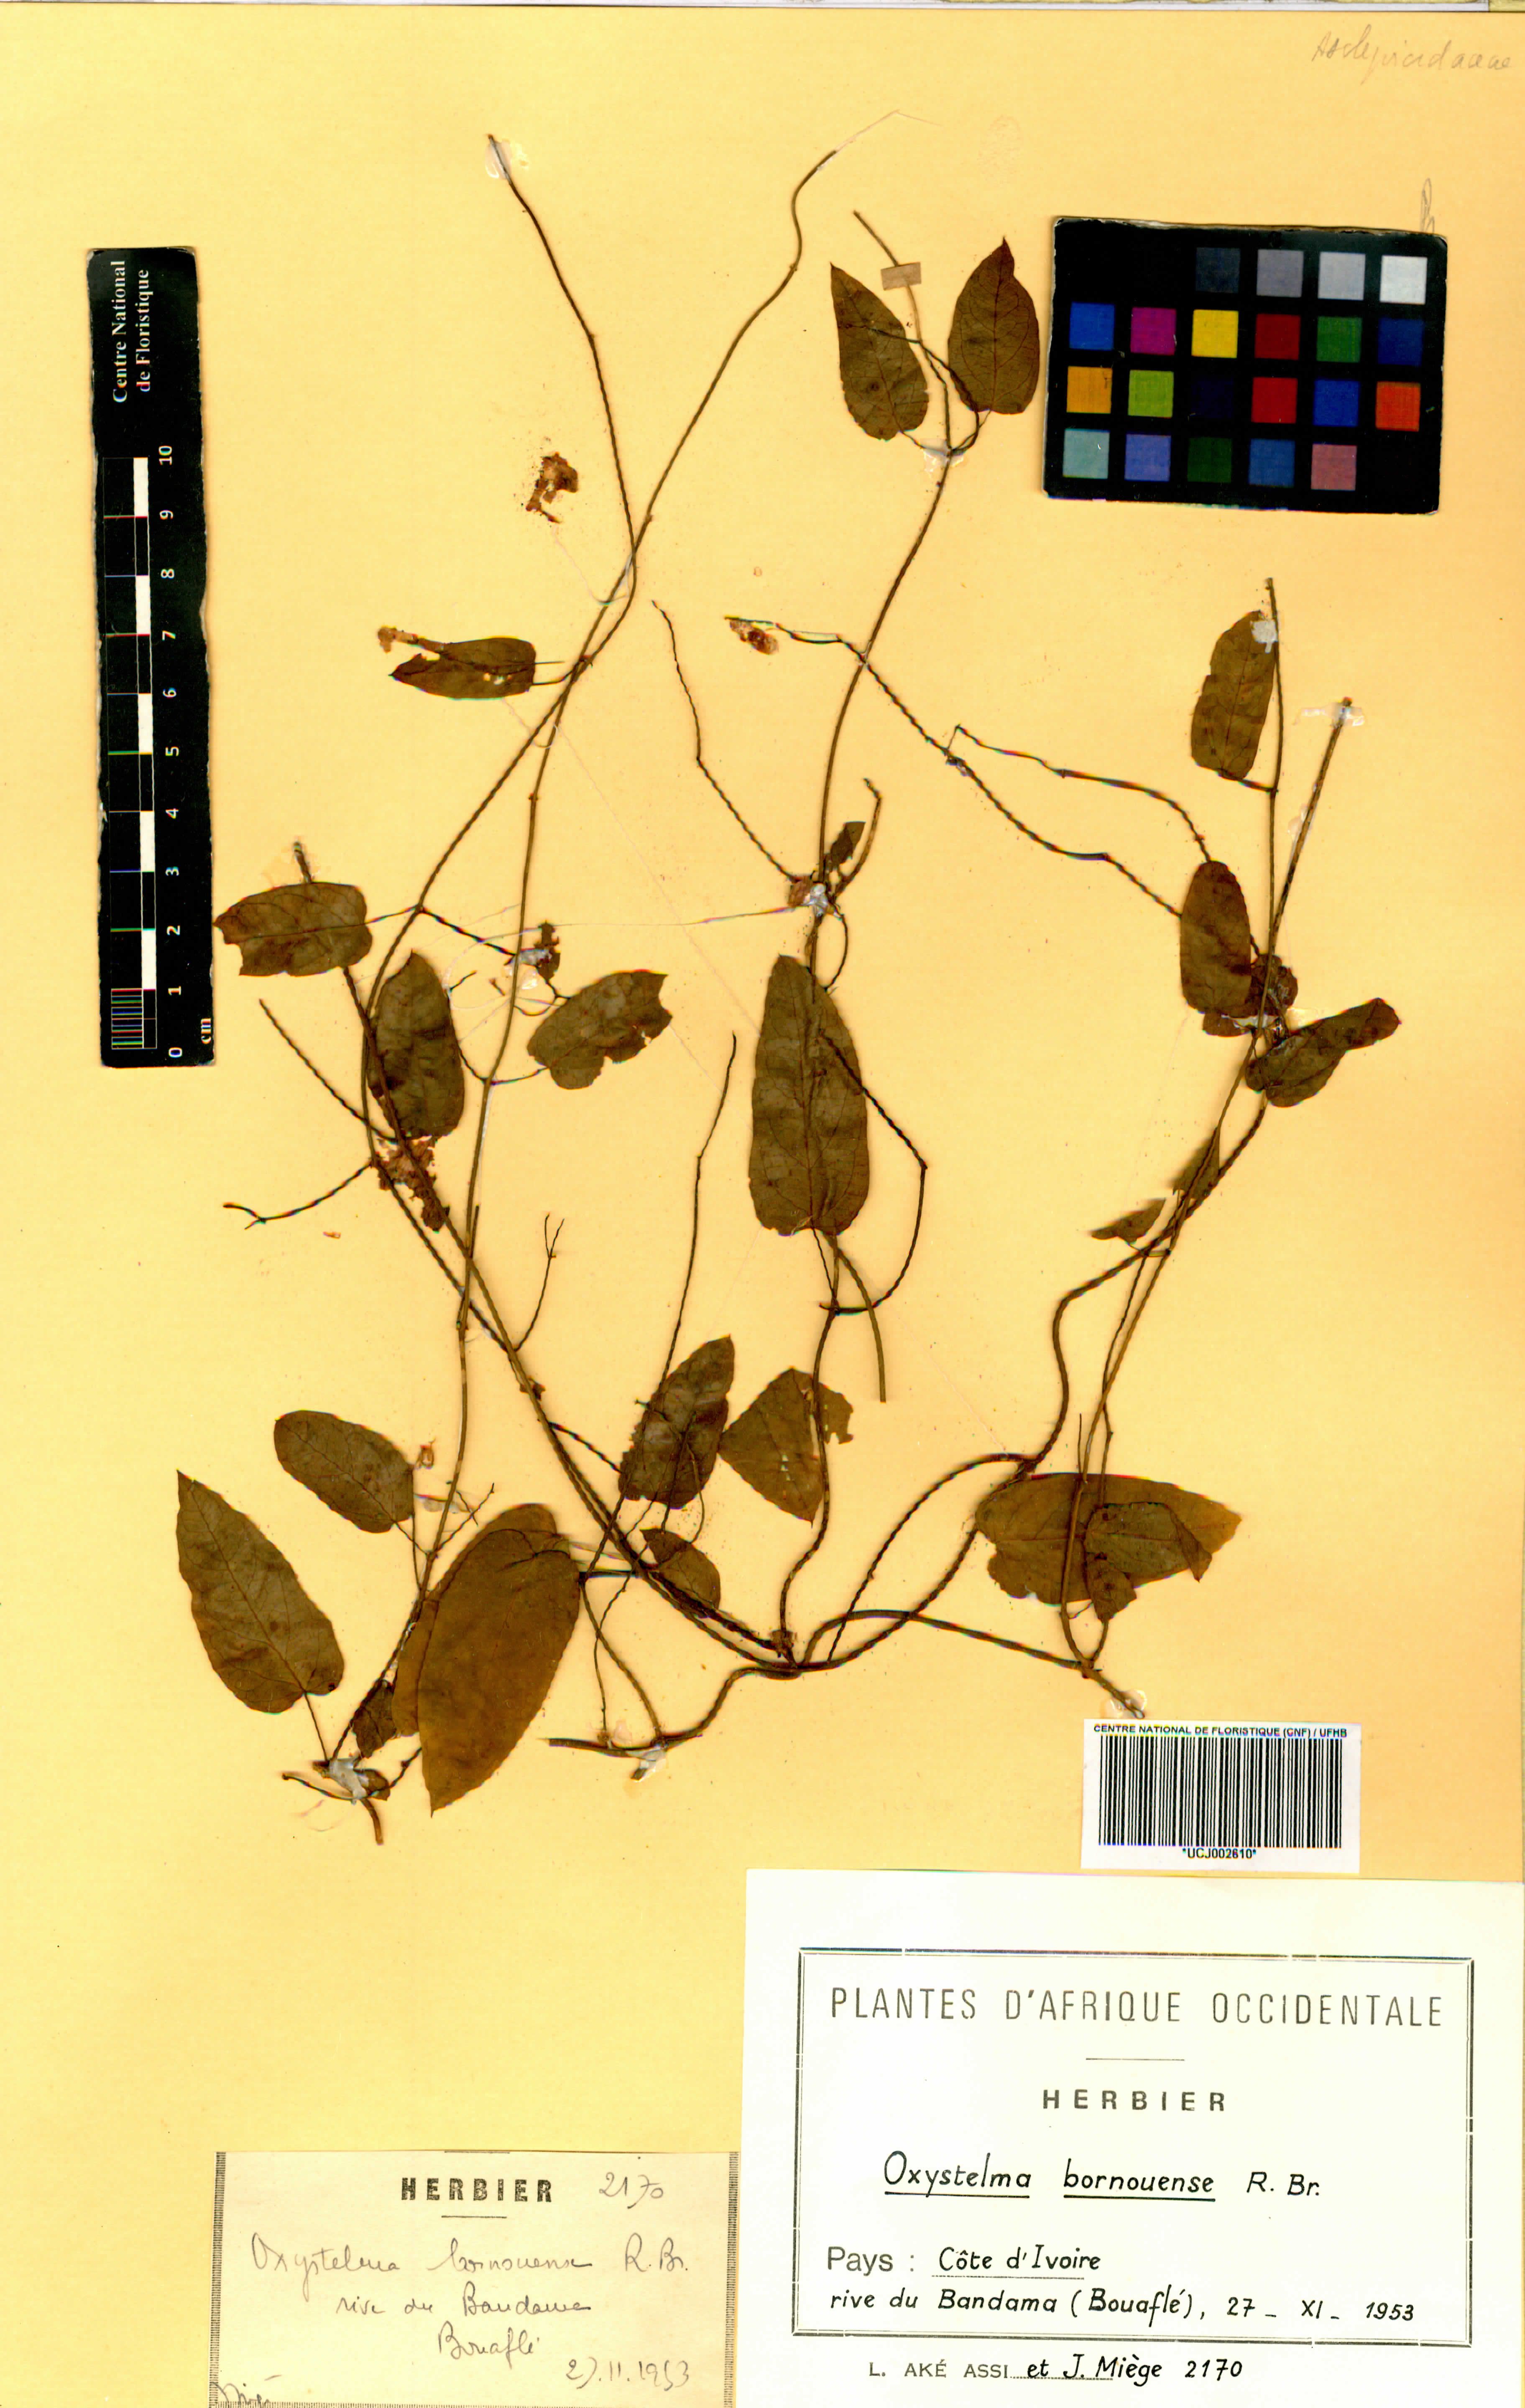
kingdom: Plantae
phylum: Tracheophyta
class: Magnoliopsida
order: Gentianales
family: Apocynaceae
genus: Oxystelma
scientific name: Oxystelma bornouense
